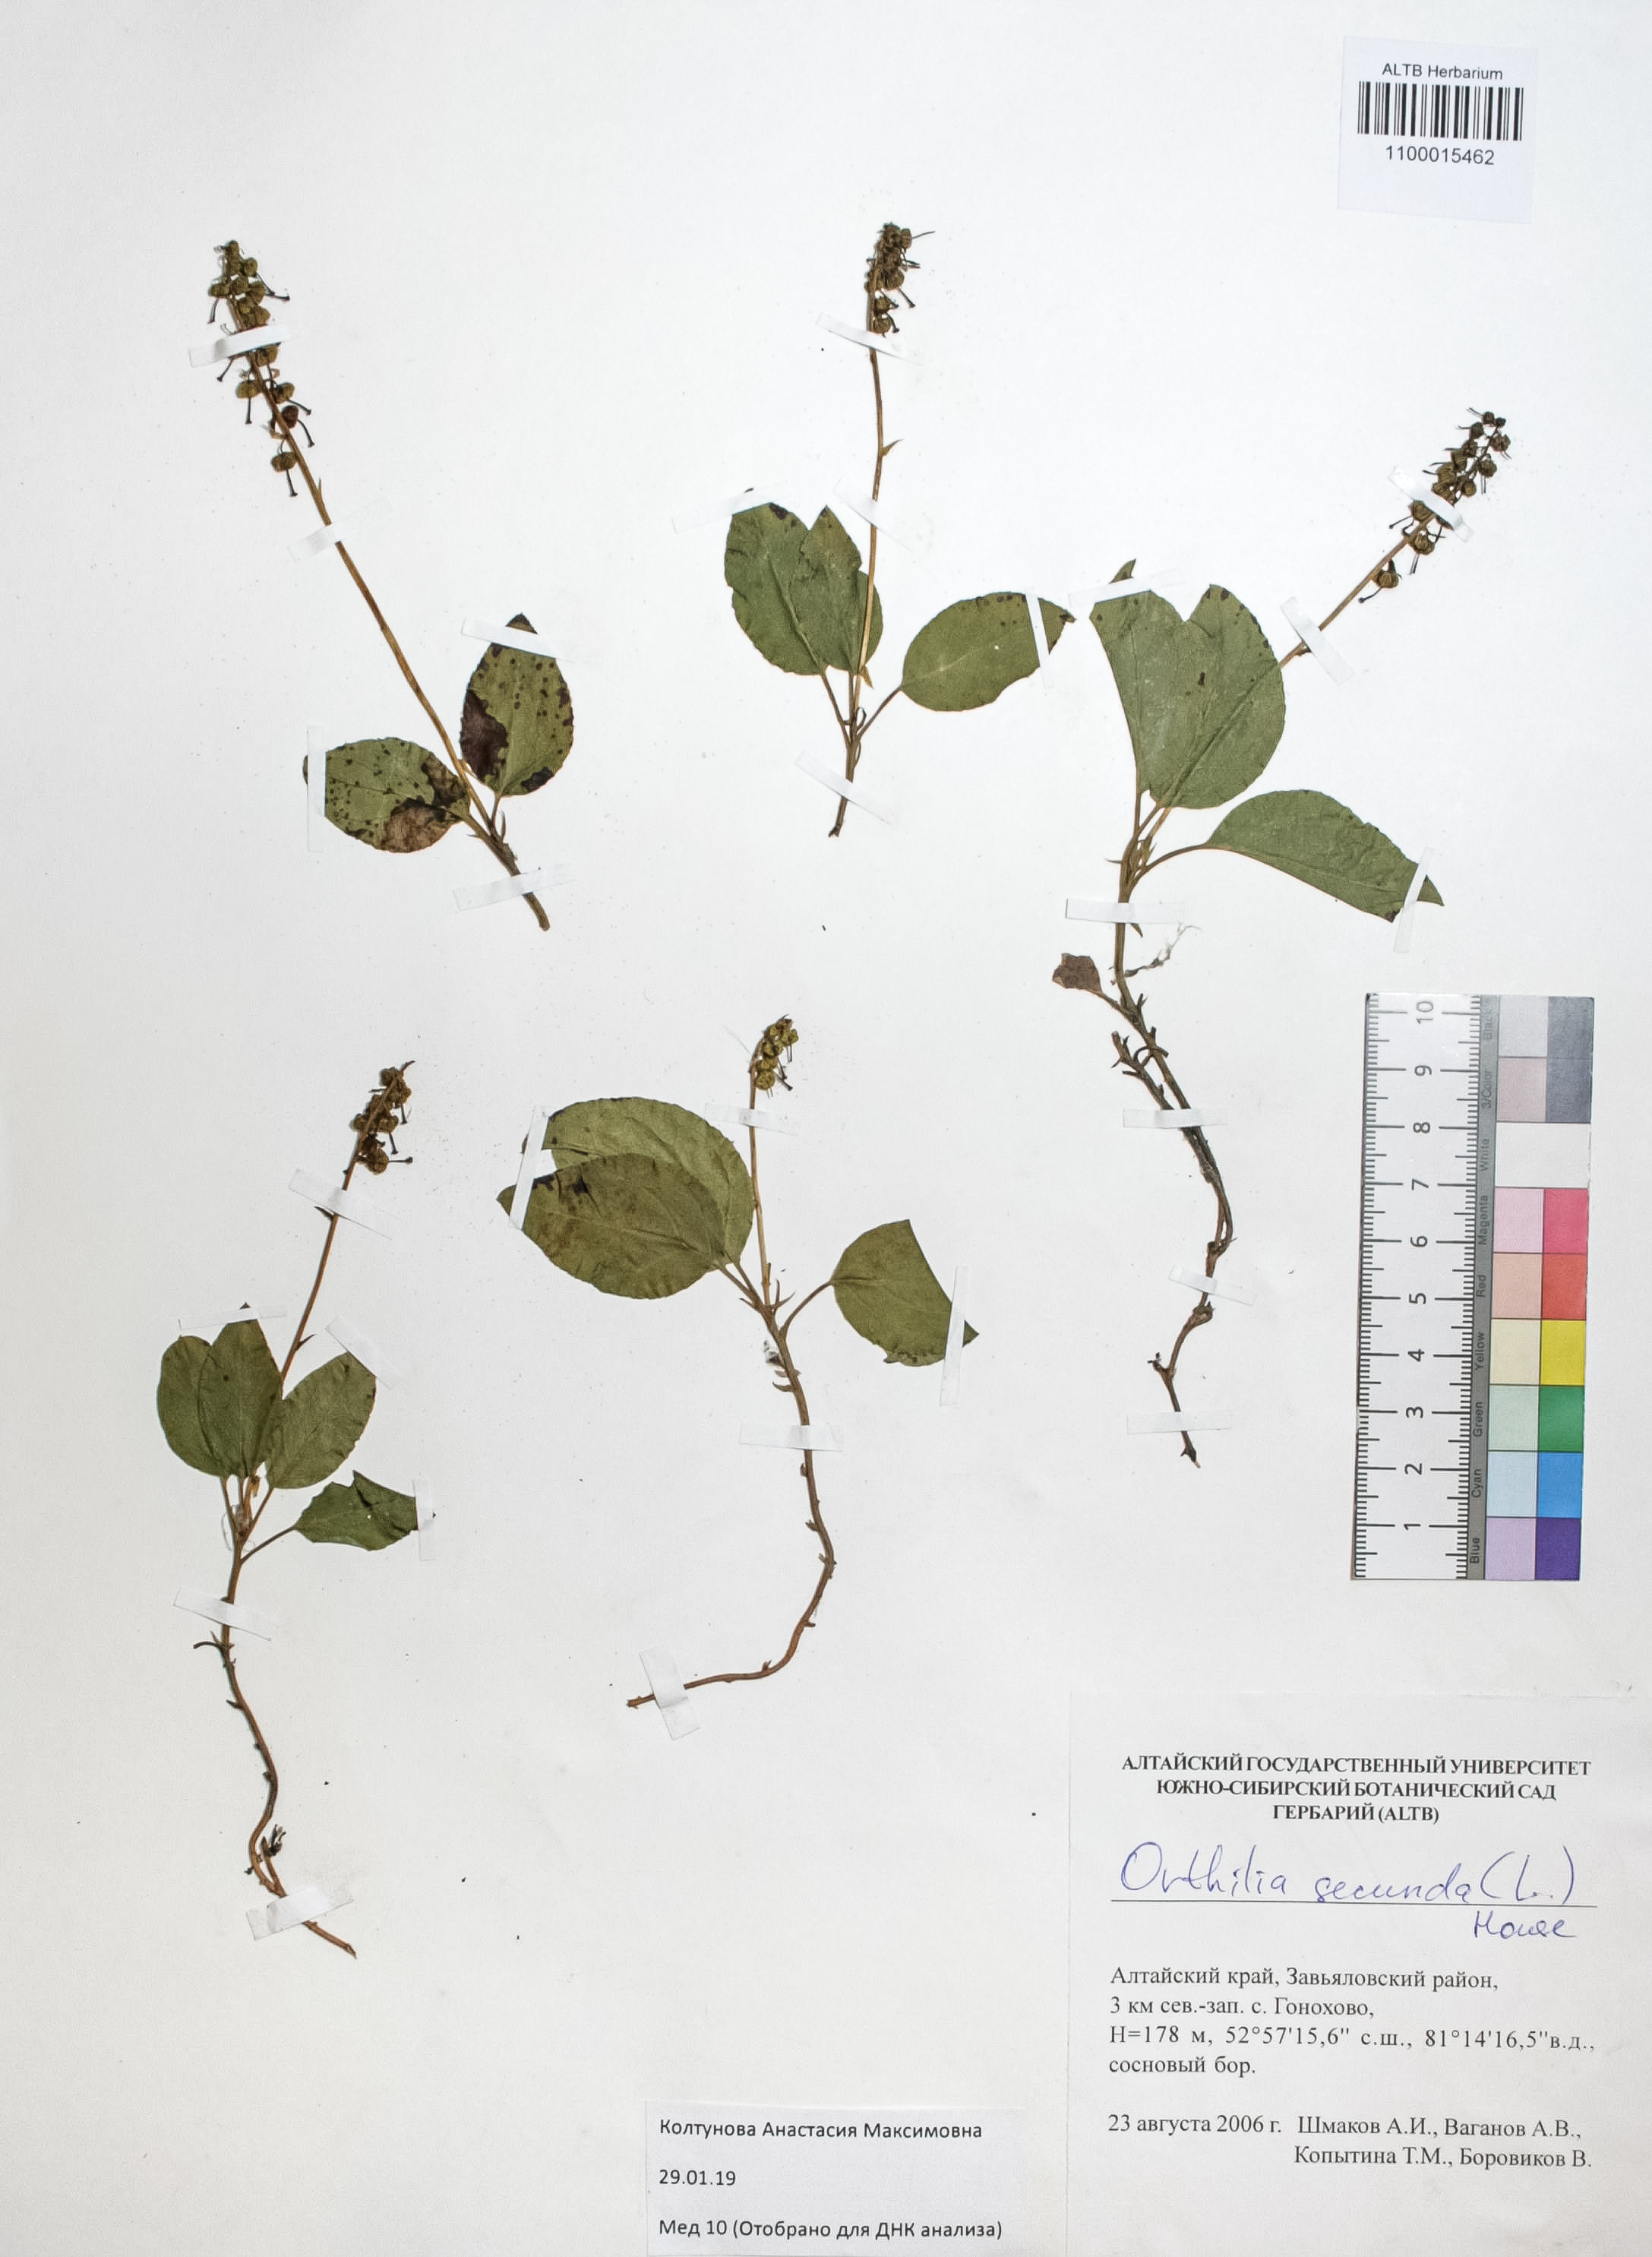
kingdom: Plantae
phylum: Tracheophyta
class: Magnoliopsida
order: Ericales
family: Ericaceae
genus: Orthilia
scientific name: Orthilia secunda
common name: One-sided orthilia
